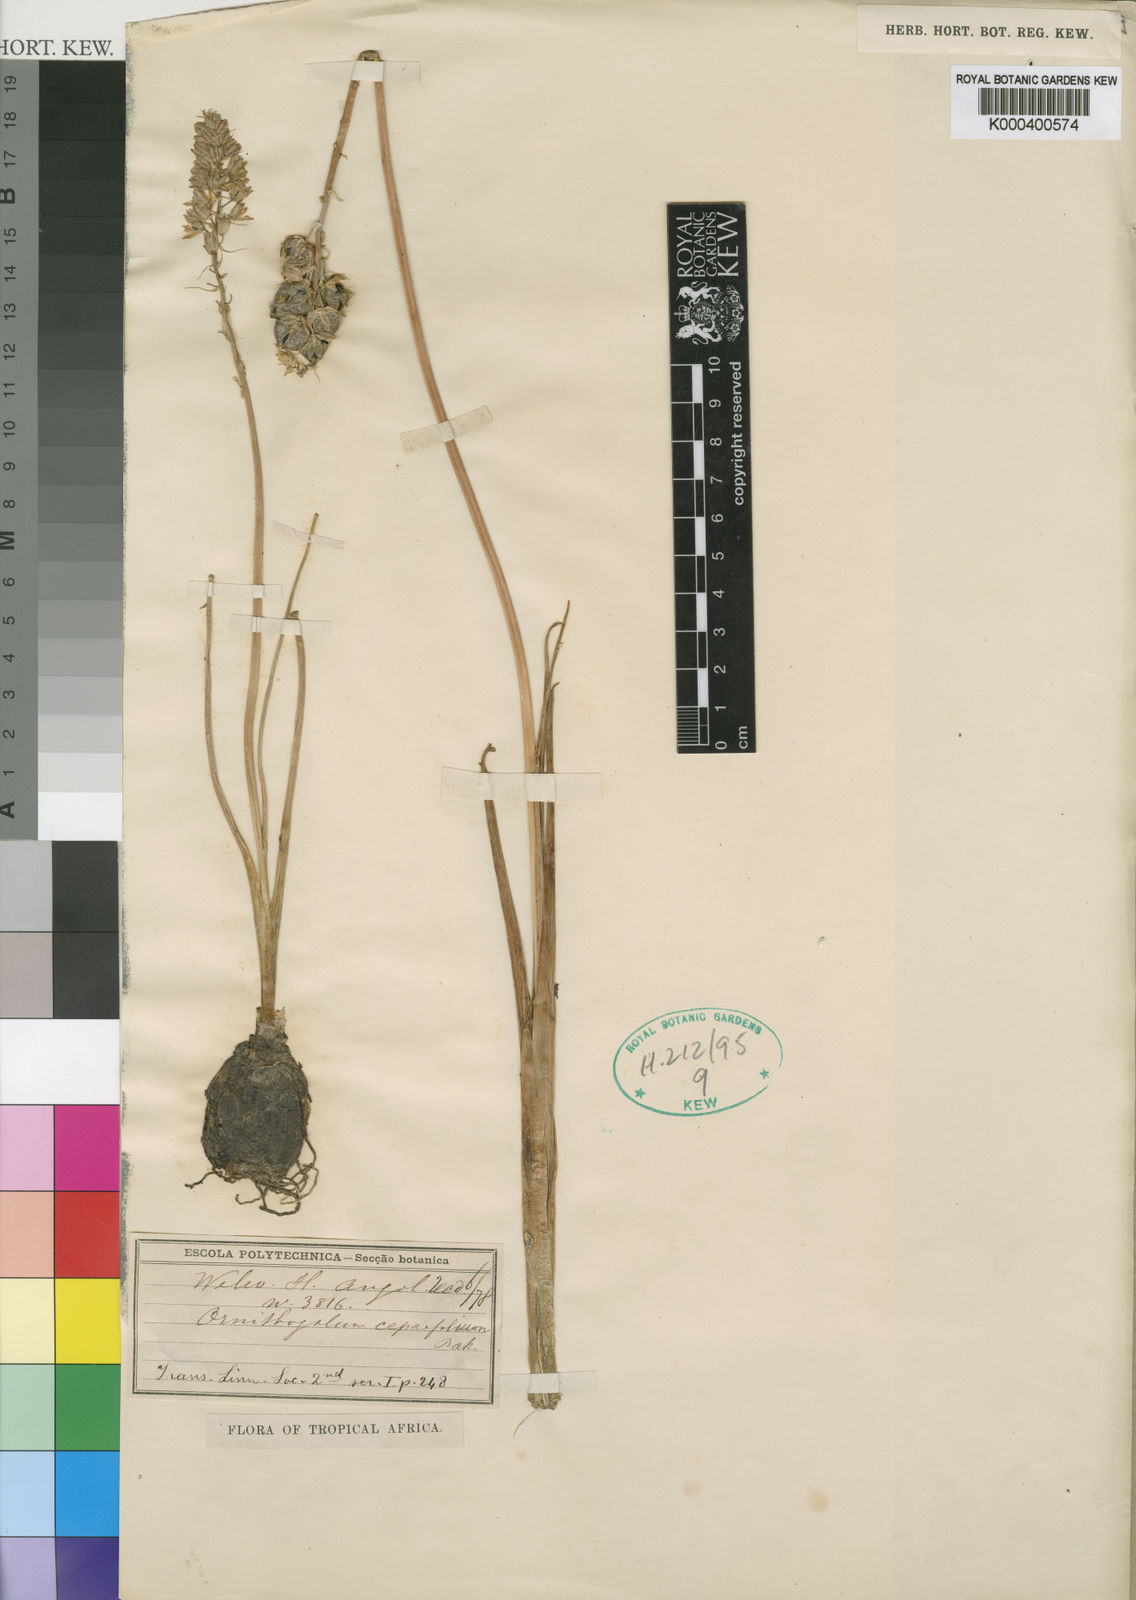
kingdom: Plantae
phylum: Tracheophyta
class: Liliopsida
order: Asparagales
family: Asparagaceae
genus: Ornithogalum
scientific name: Ornithogalum
